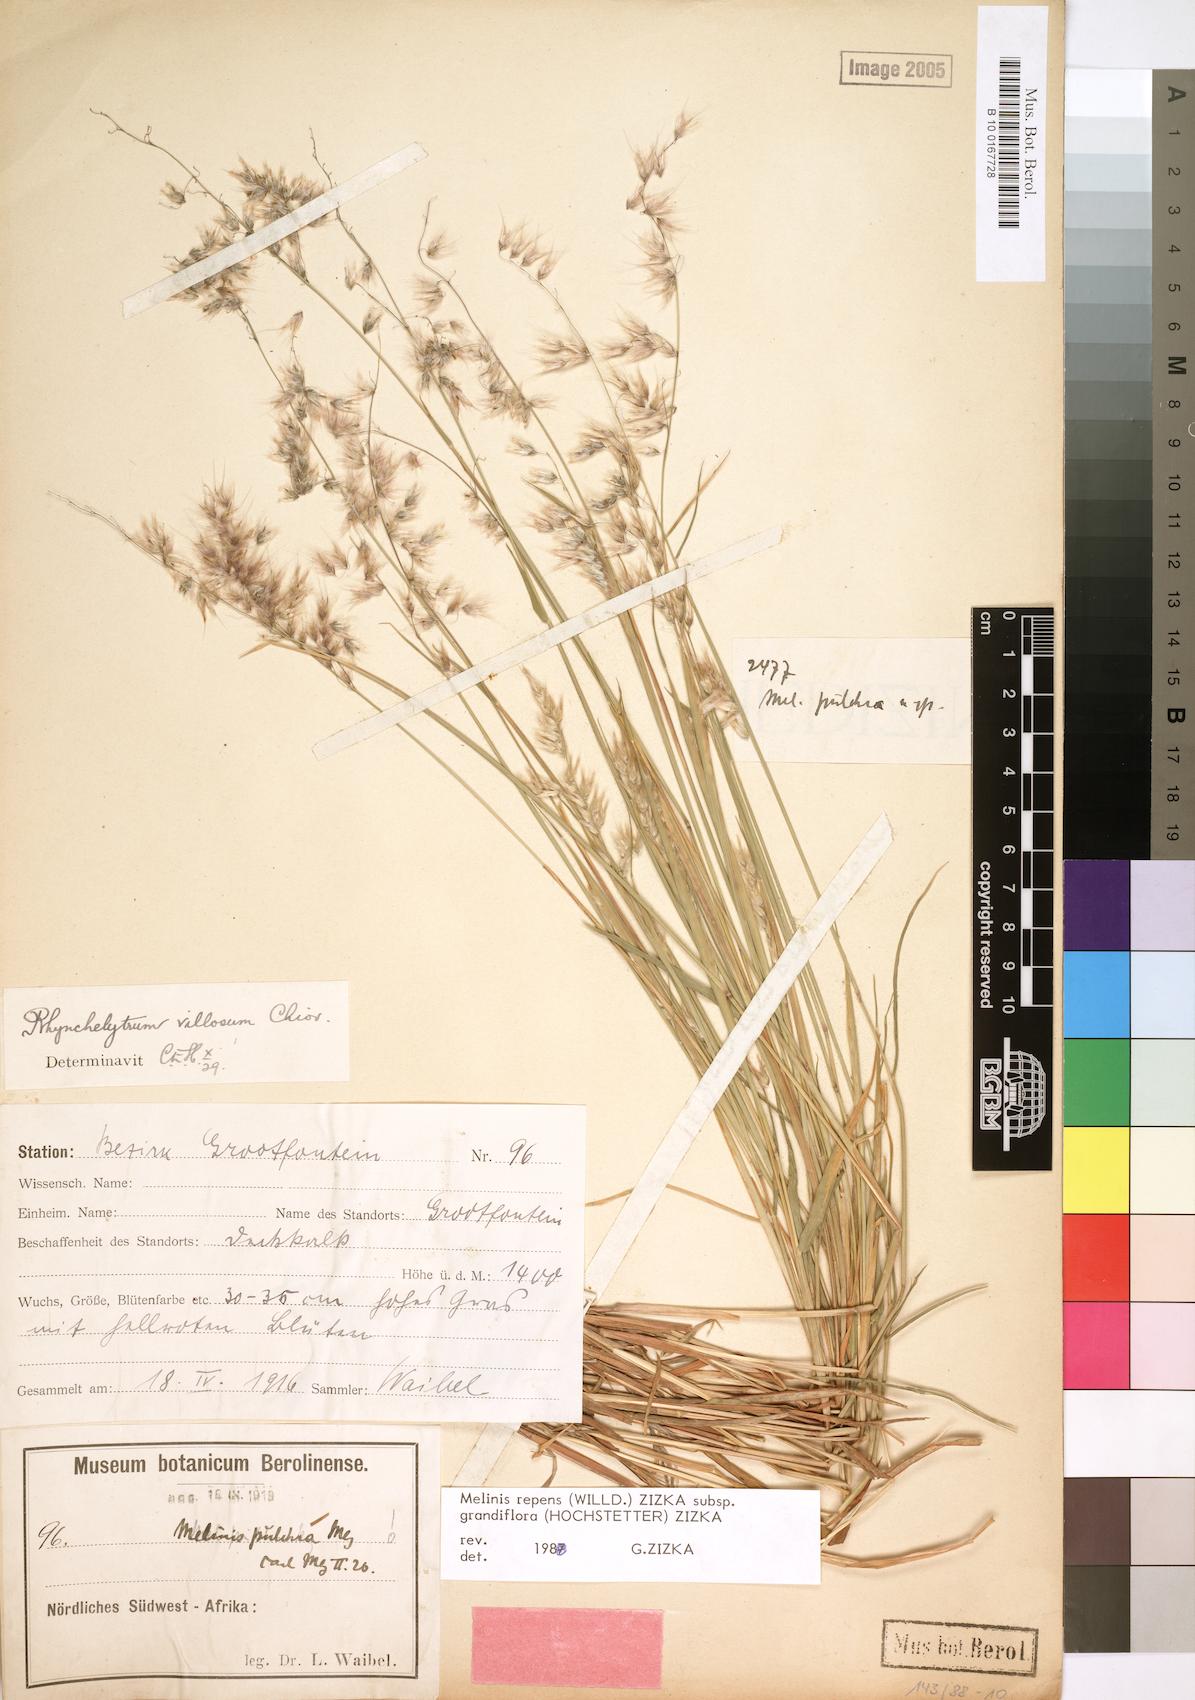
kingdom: Plantae
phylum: Tracheophyta
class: Liliopsida
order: Poales
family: Poaceae
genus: Melinis
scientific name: Melinis repens
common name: Rose natal grass
